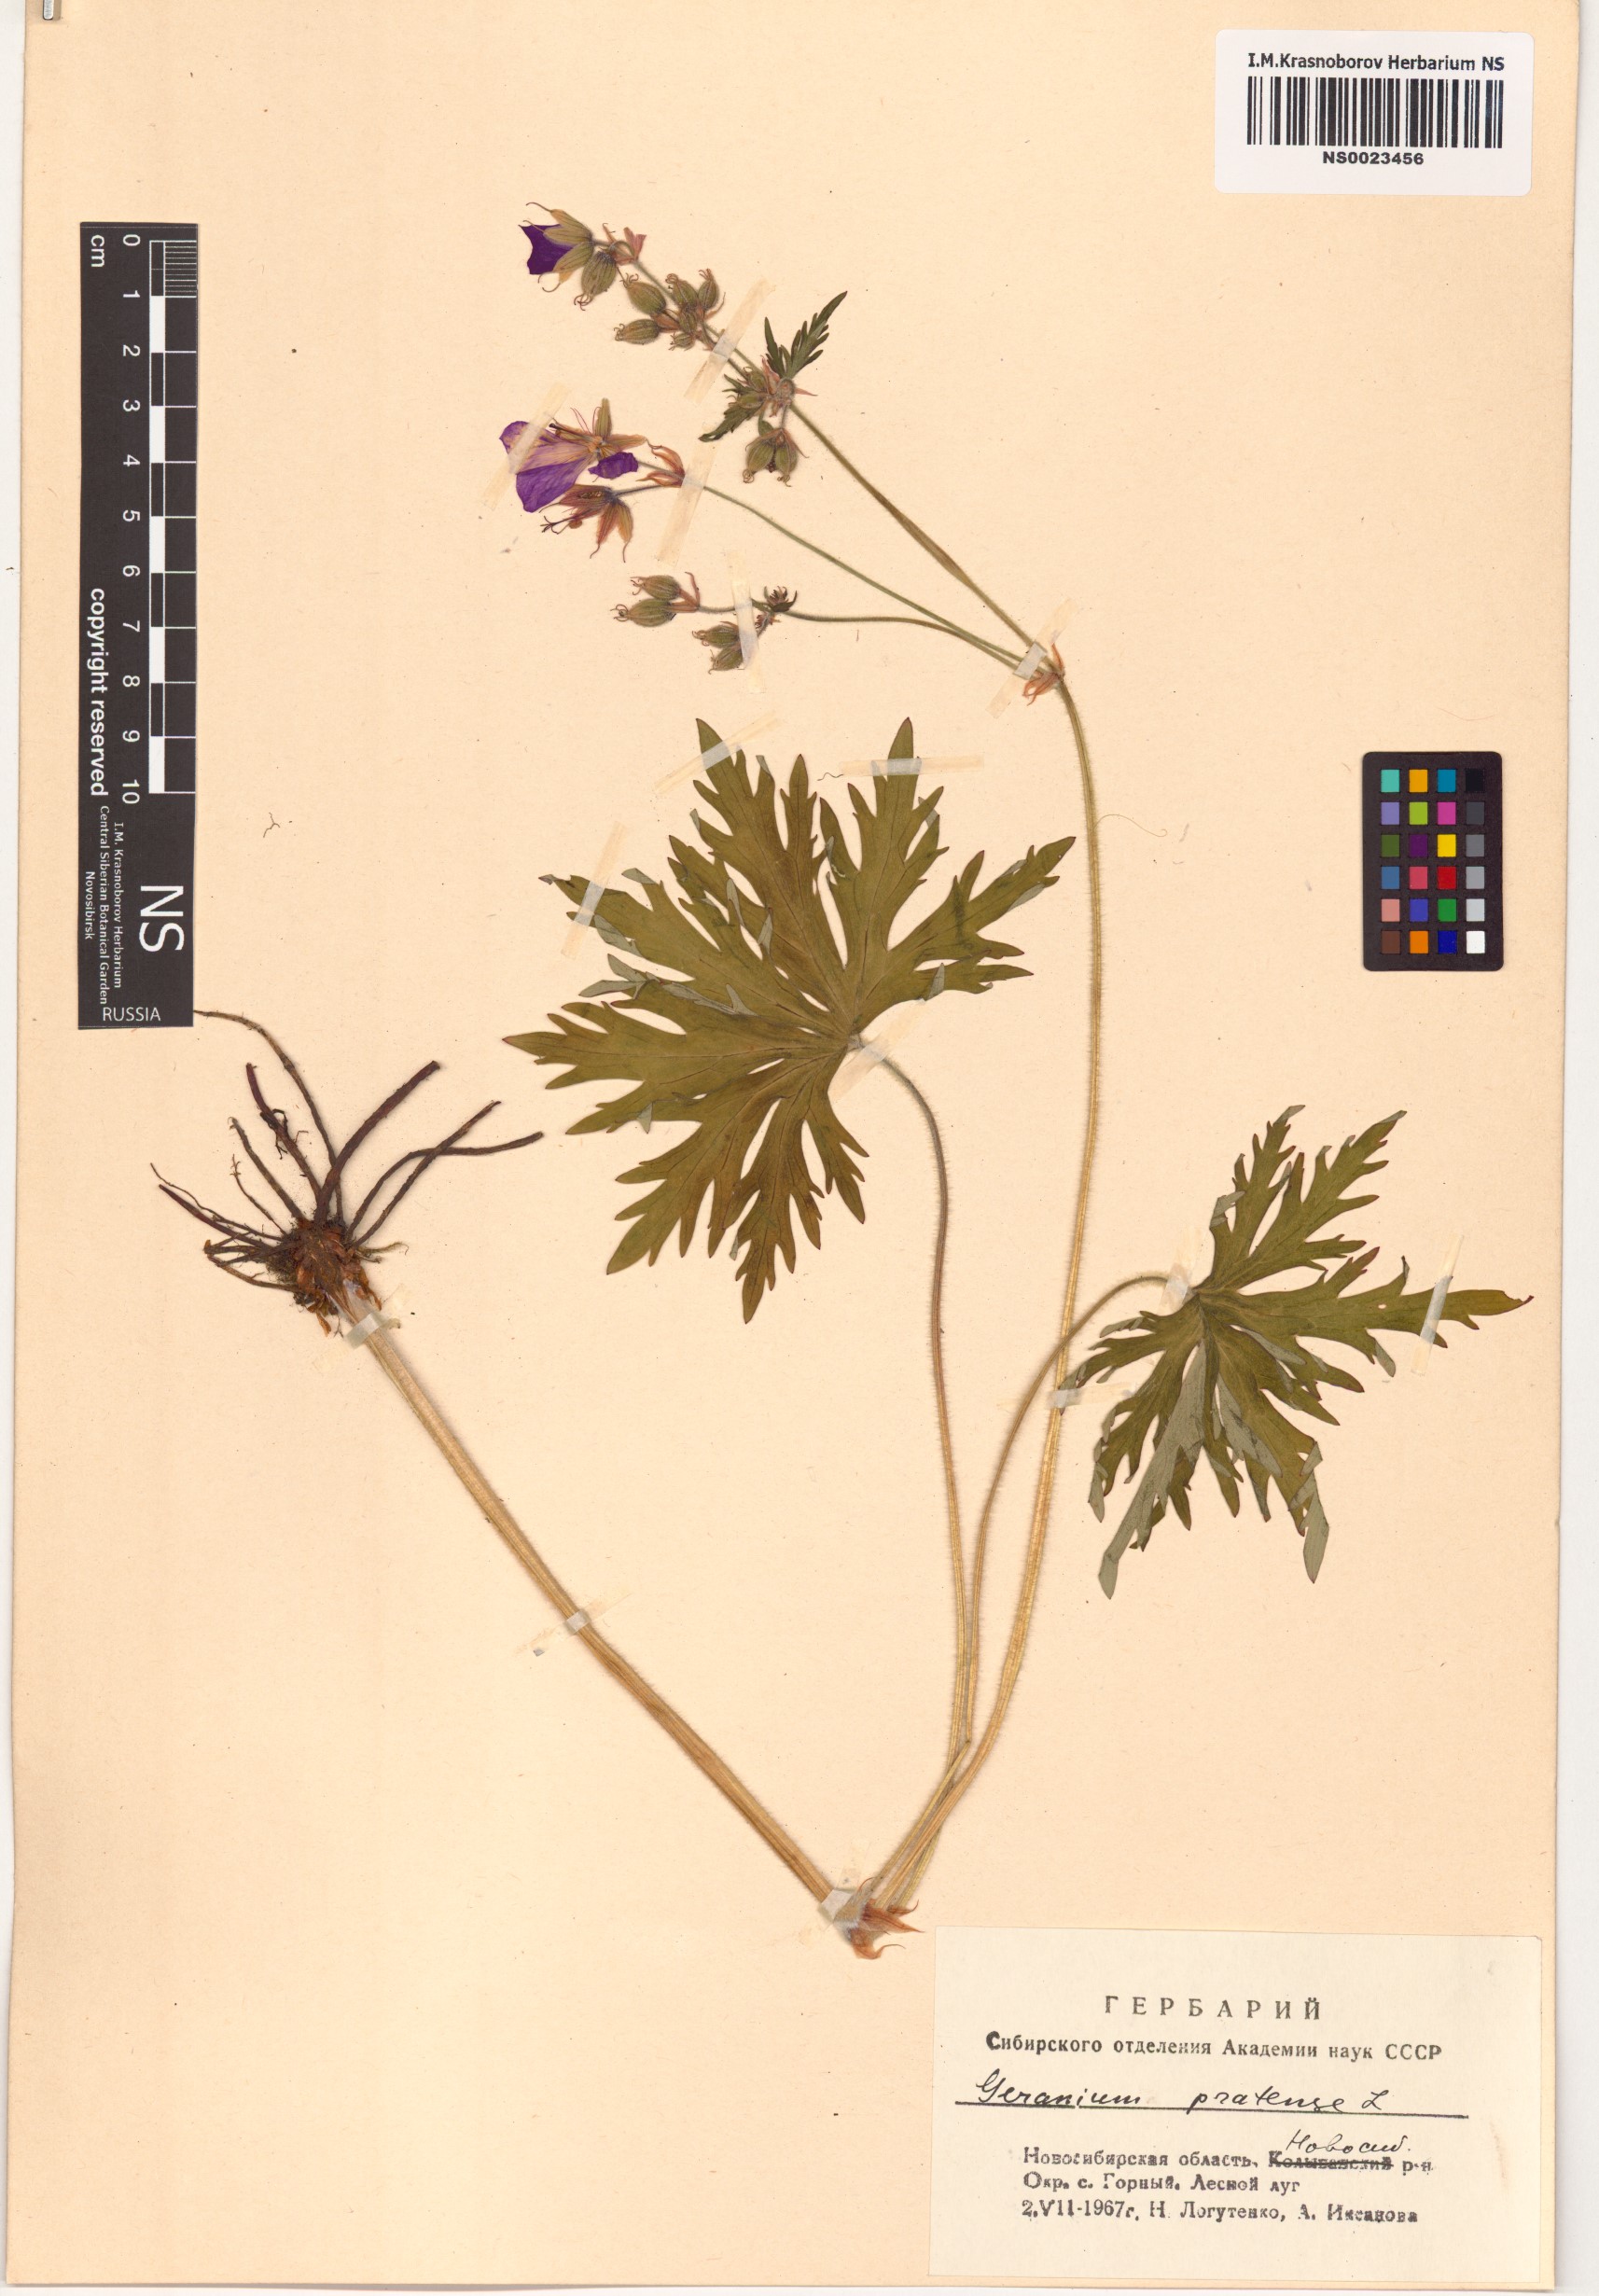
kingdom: Plantae
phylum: Tracheophyta
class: Magnoliopsida
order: Geraniales
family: Geraniaceae
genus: Geranium
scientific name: Geranium pratense
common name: Meadow crane's-bill
